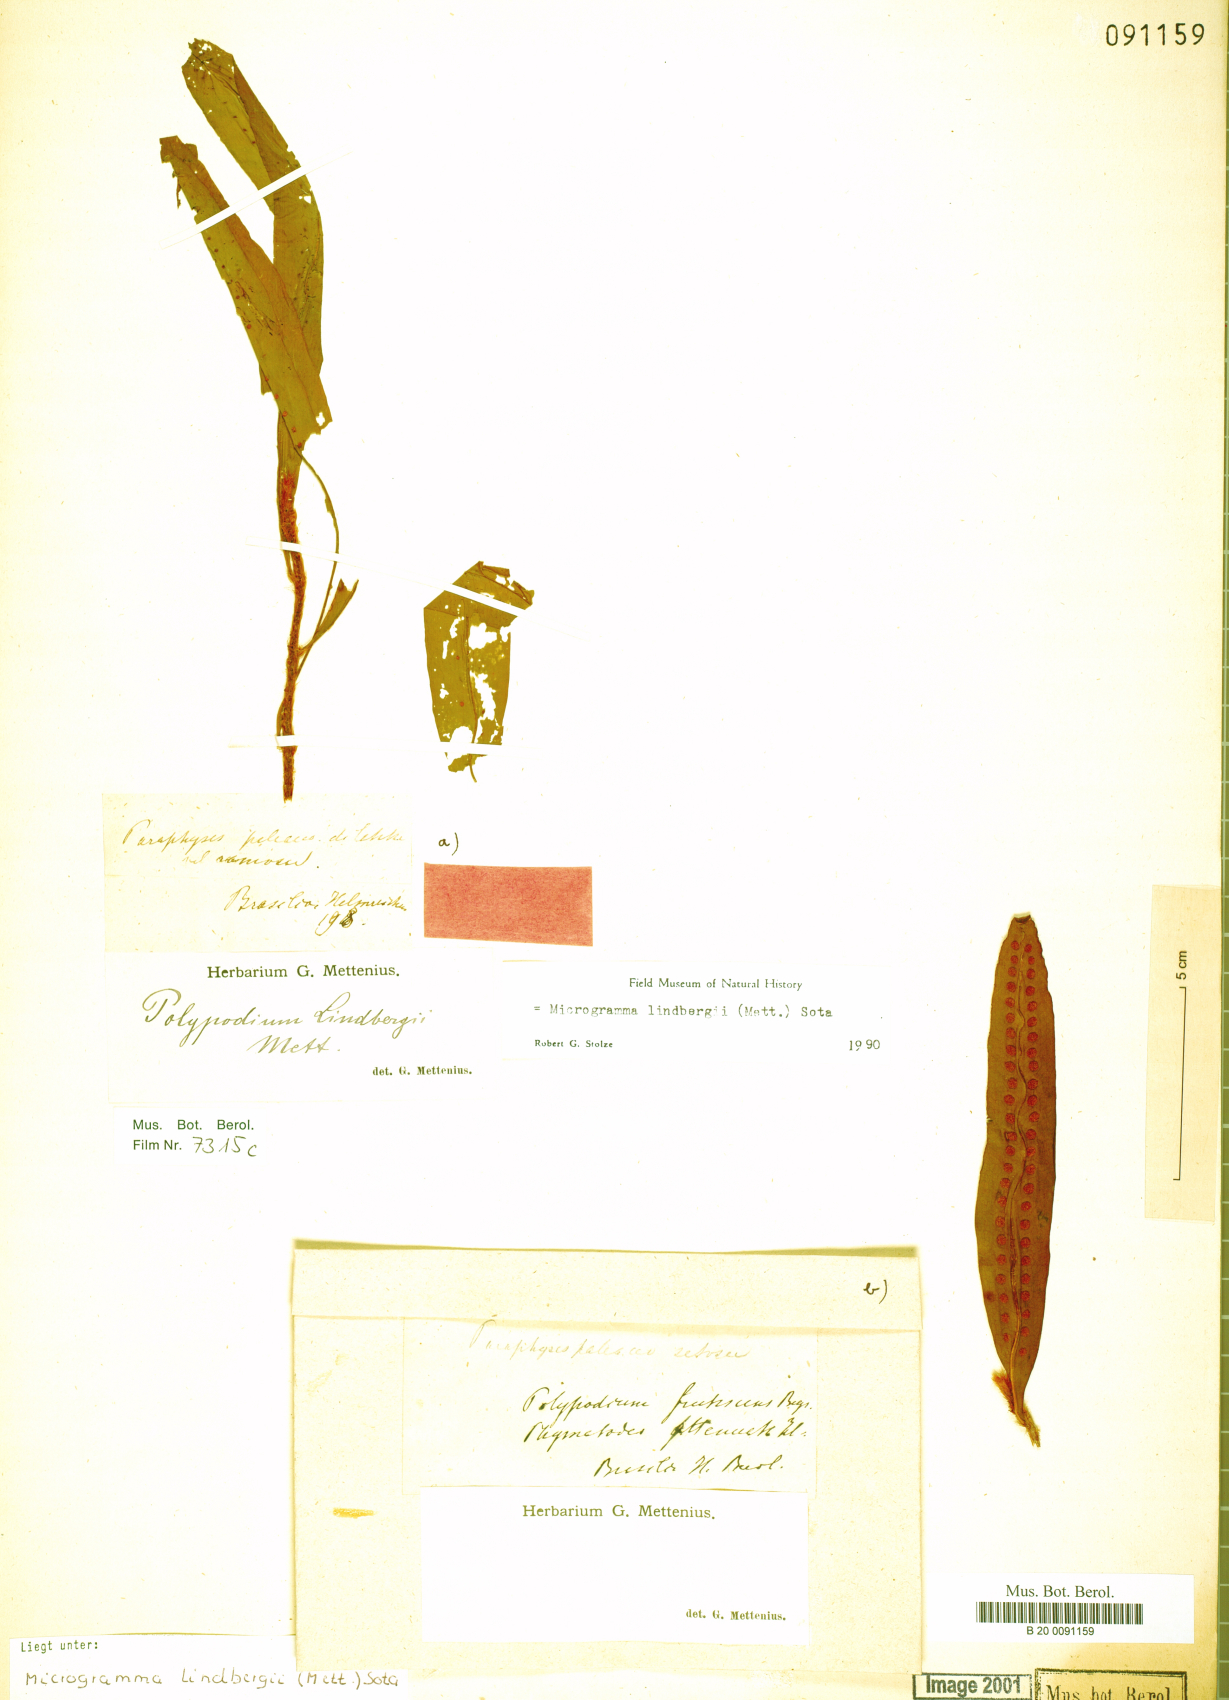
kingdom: Plantae
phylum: Tracheophyta
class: Polypodiopsida
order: Polypodiales
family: Polypodiaceae
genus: Microgramma
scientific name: Microgramma lindbergii
